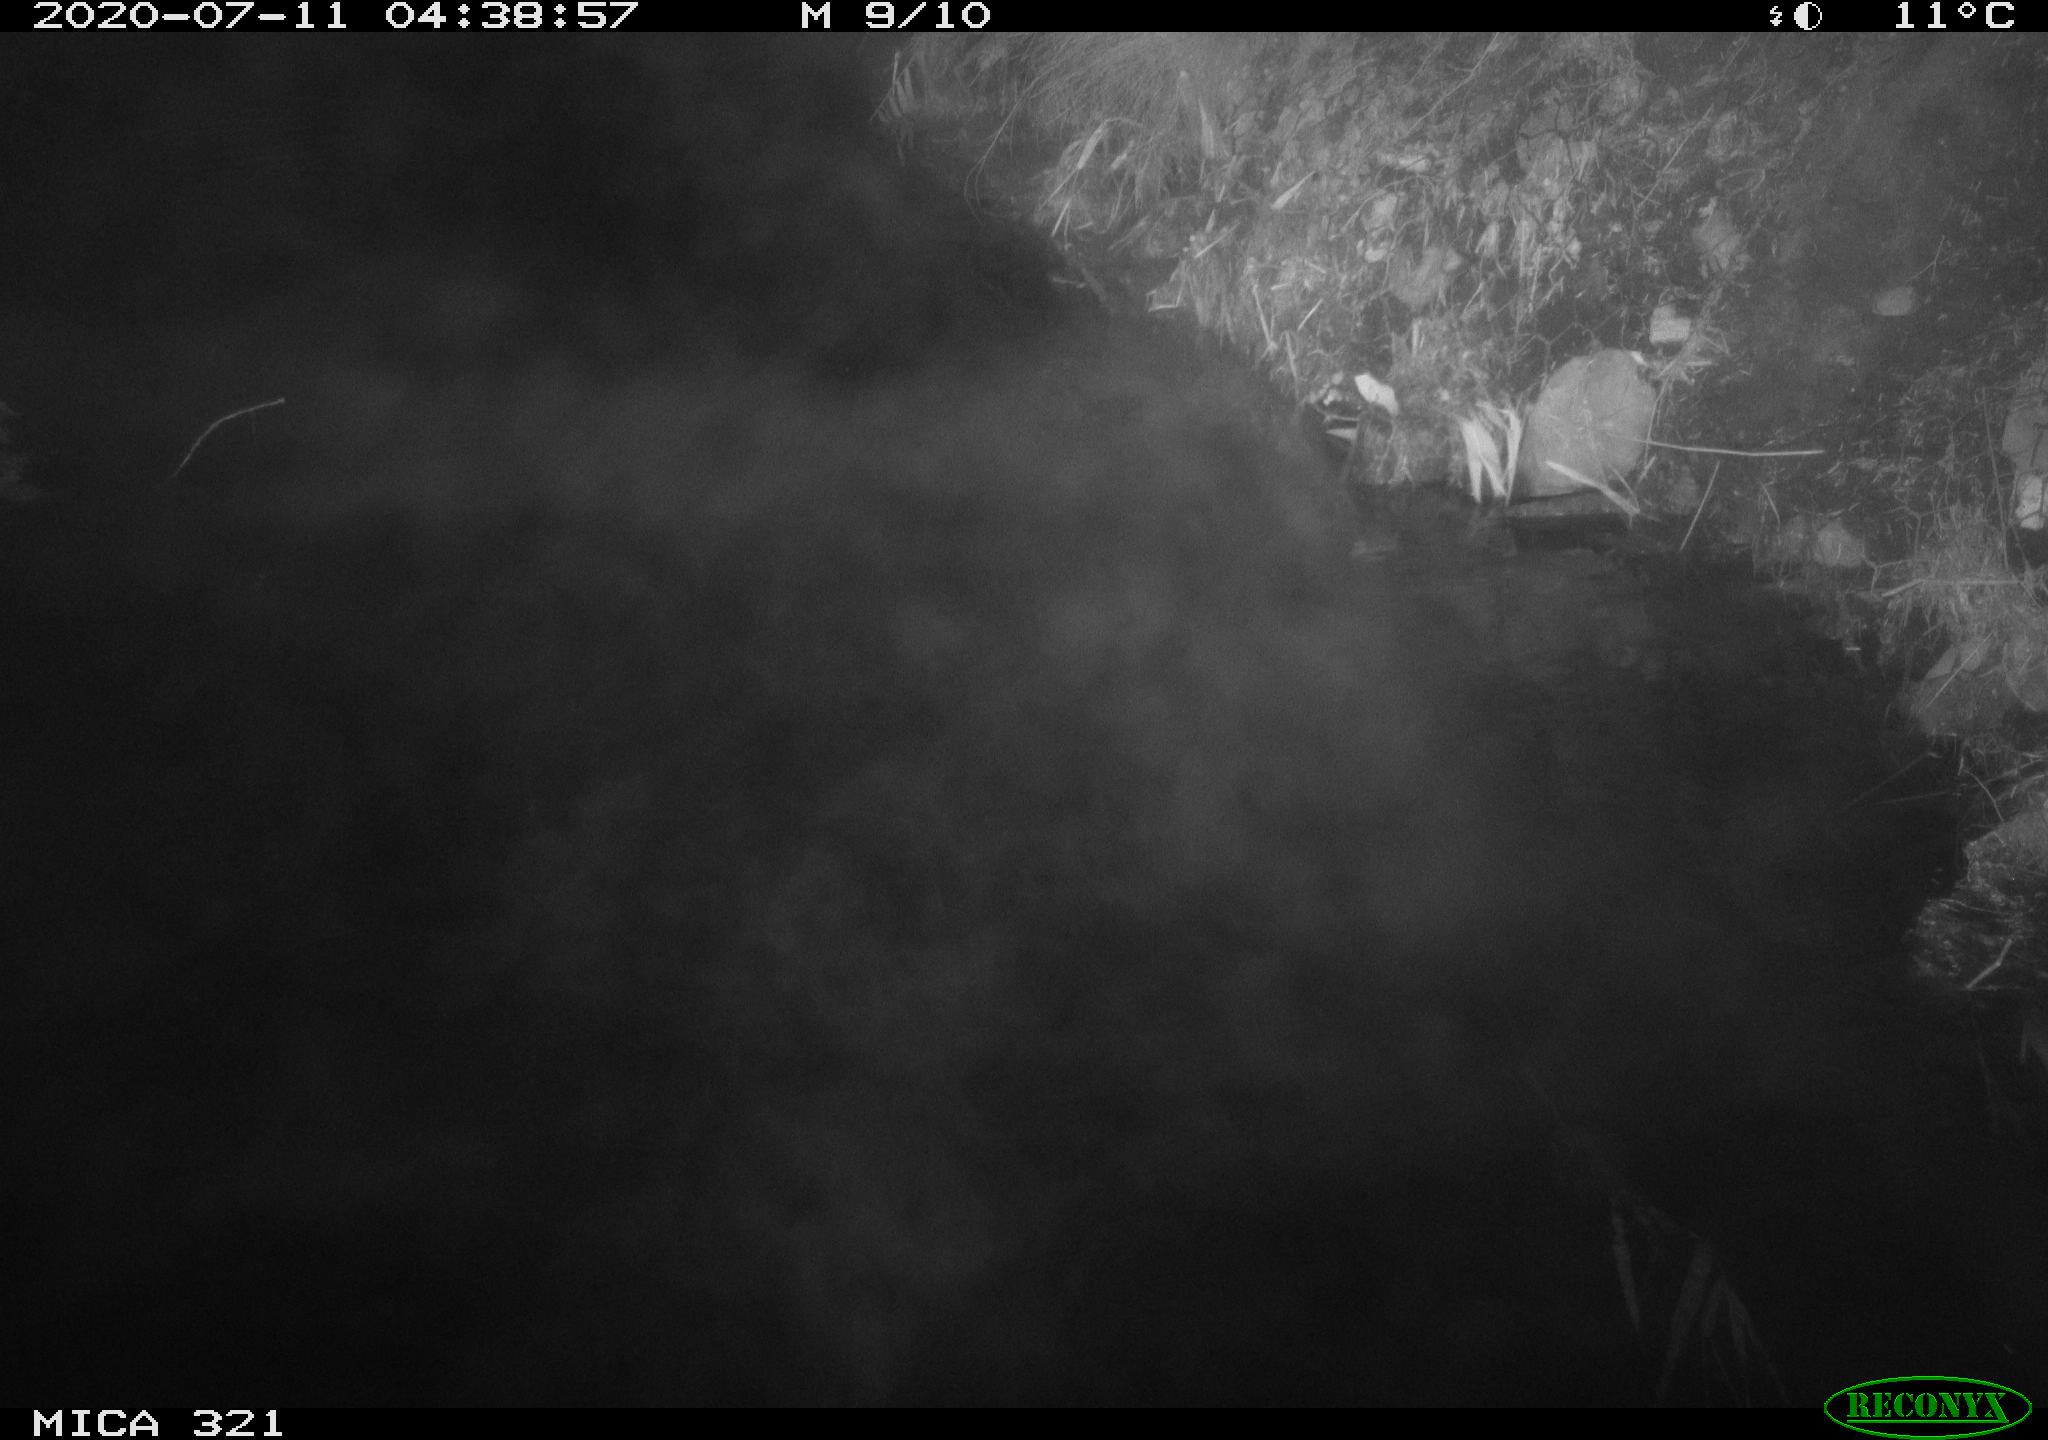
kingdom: Animalia
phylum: Chordata
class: Aves
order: Anseriformes
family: Anatidae
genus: Anas
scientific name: Anas platyrhynchos
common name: Mallard
